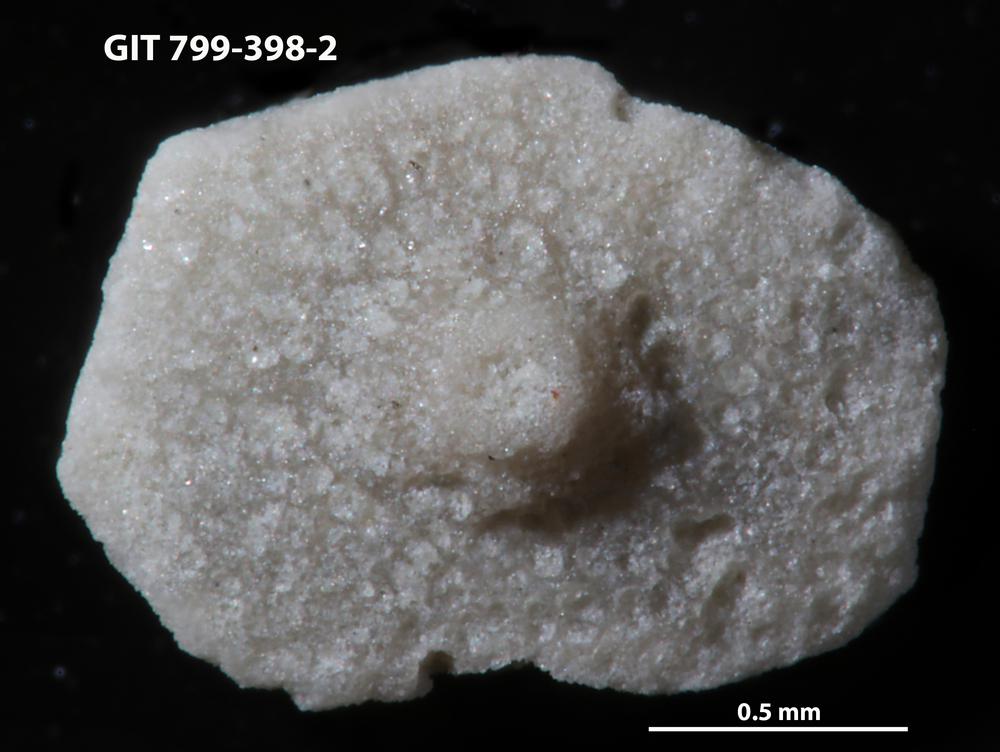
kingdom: Animalia
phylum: Echinodermata
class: Echinoidea
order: Bothriocidaroida
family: Bothriocidaridae
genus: Neobothriocidaris
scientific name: Neobothriocidaris
